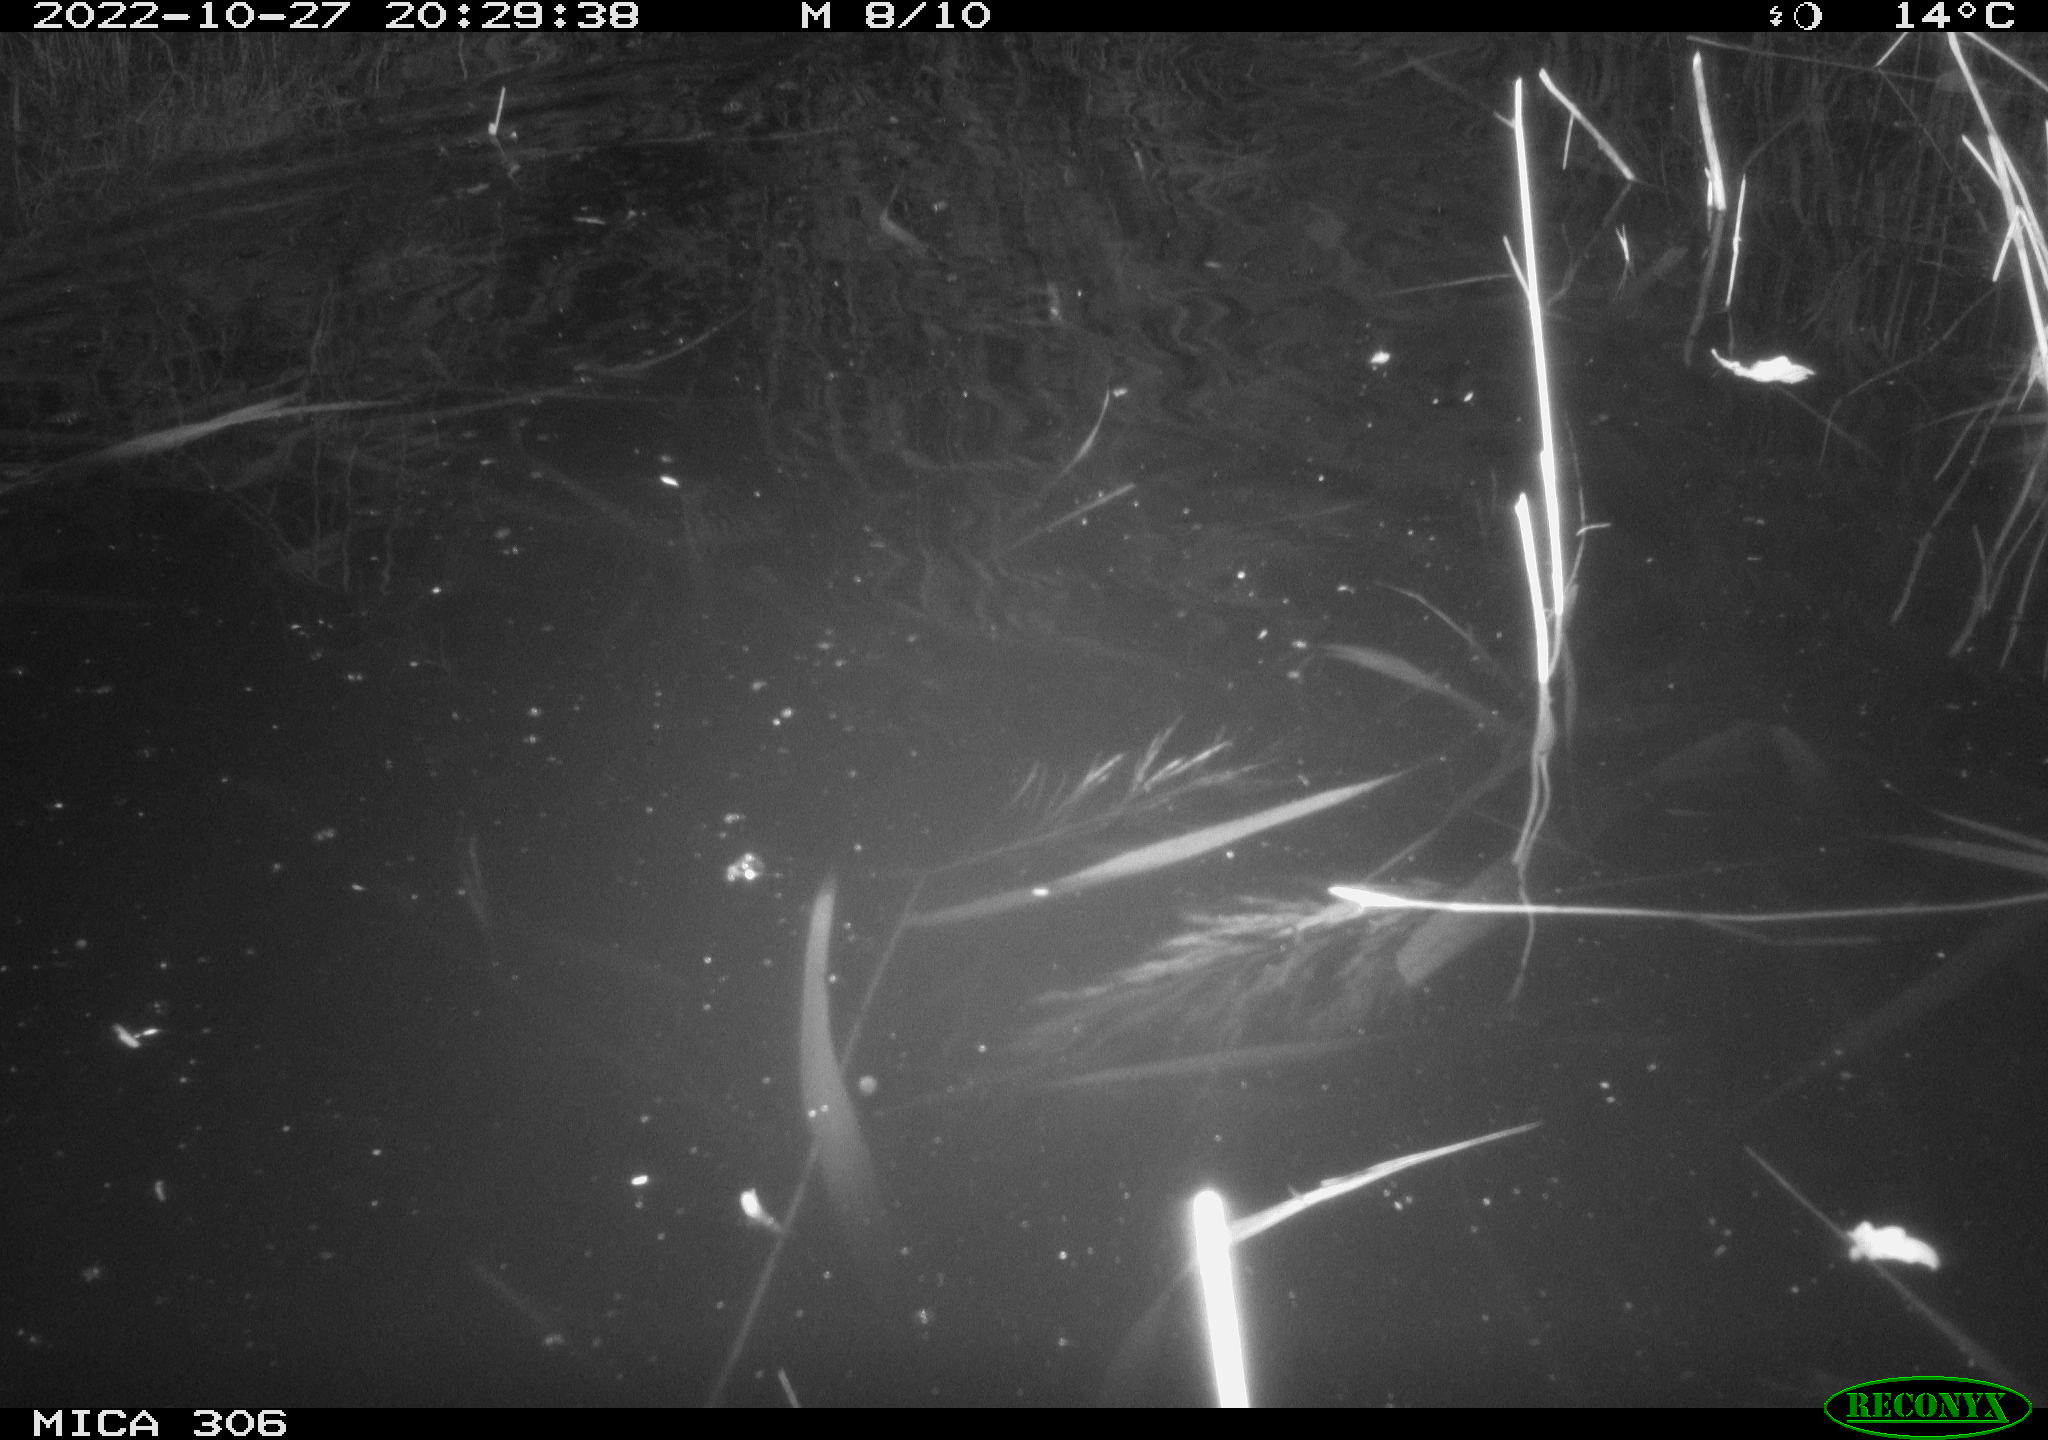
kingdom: Animalia
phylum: Chordata
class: Mammalia
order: Rodentia
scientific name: Rodentia
